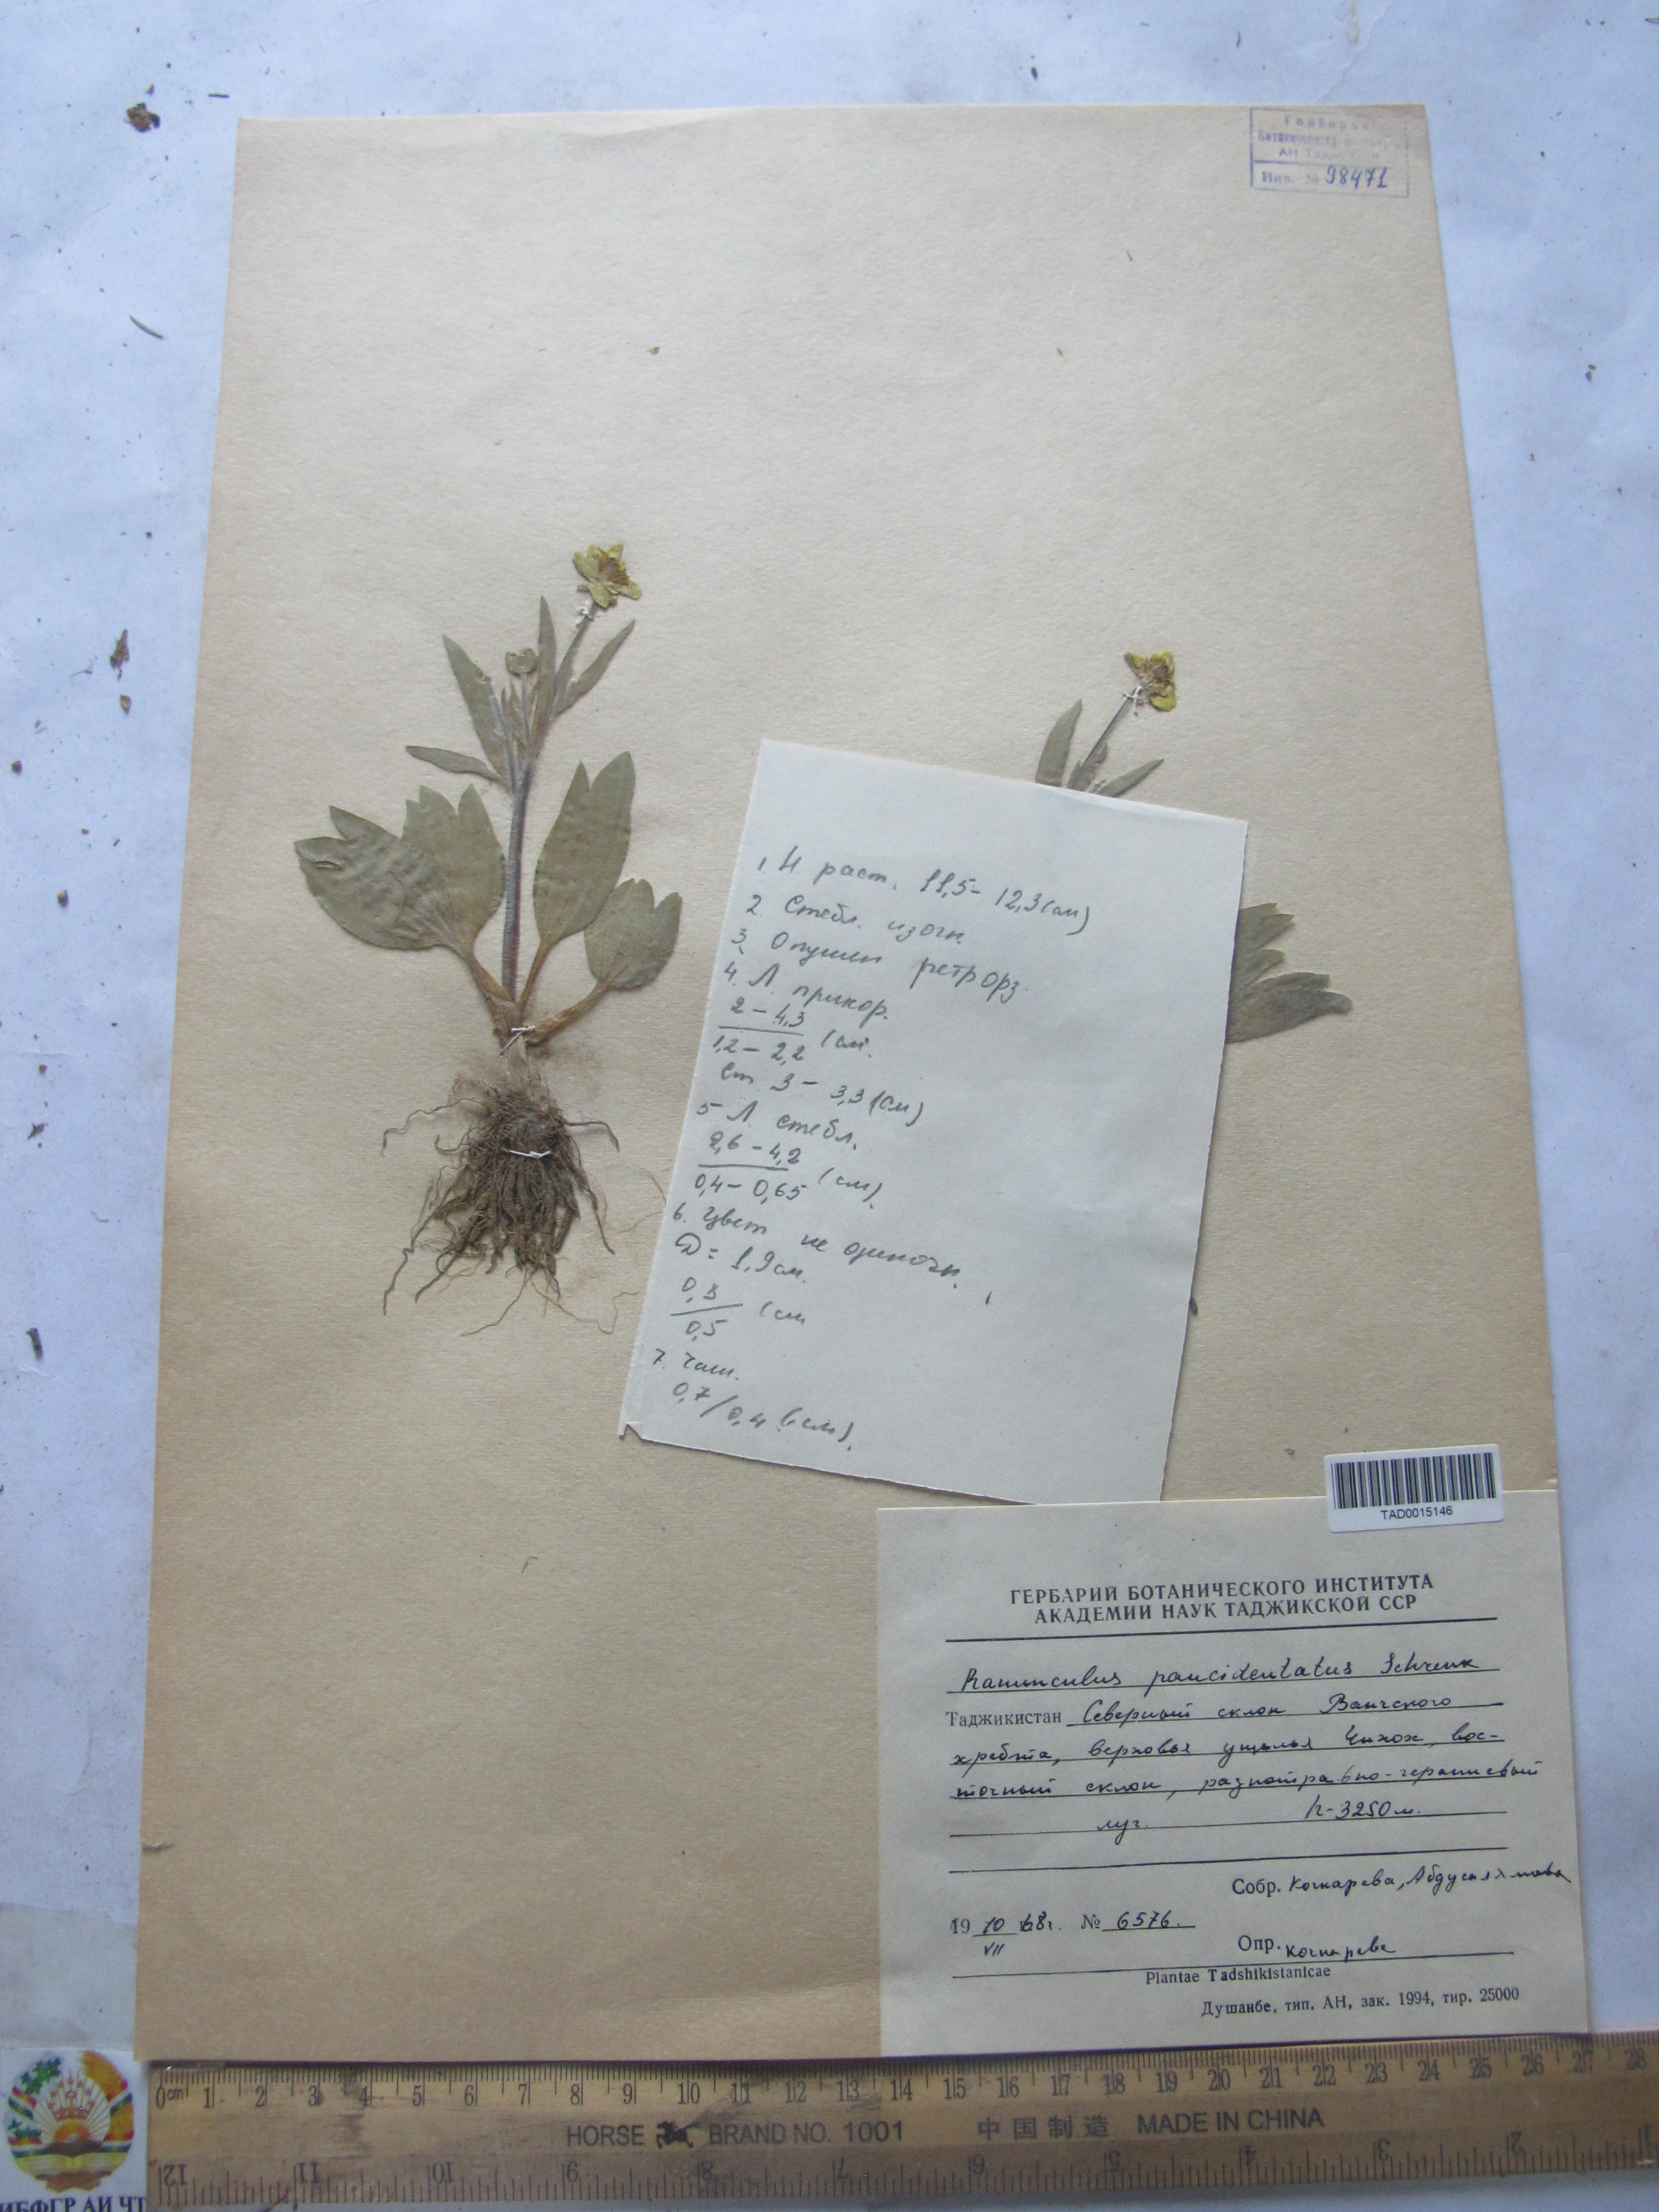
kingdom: Plantae
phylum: Tracheophyta
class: Magnoliopsida
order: Ranunculales
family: Ranunculaceae
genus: Ranunculus
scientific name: Ranunculus paucidentatus
